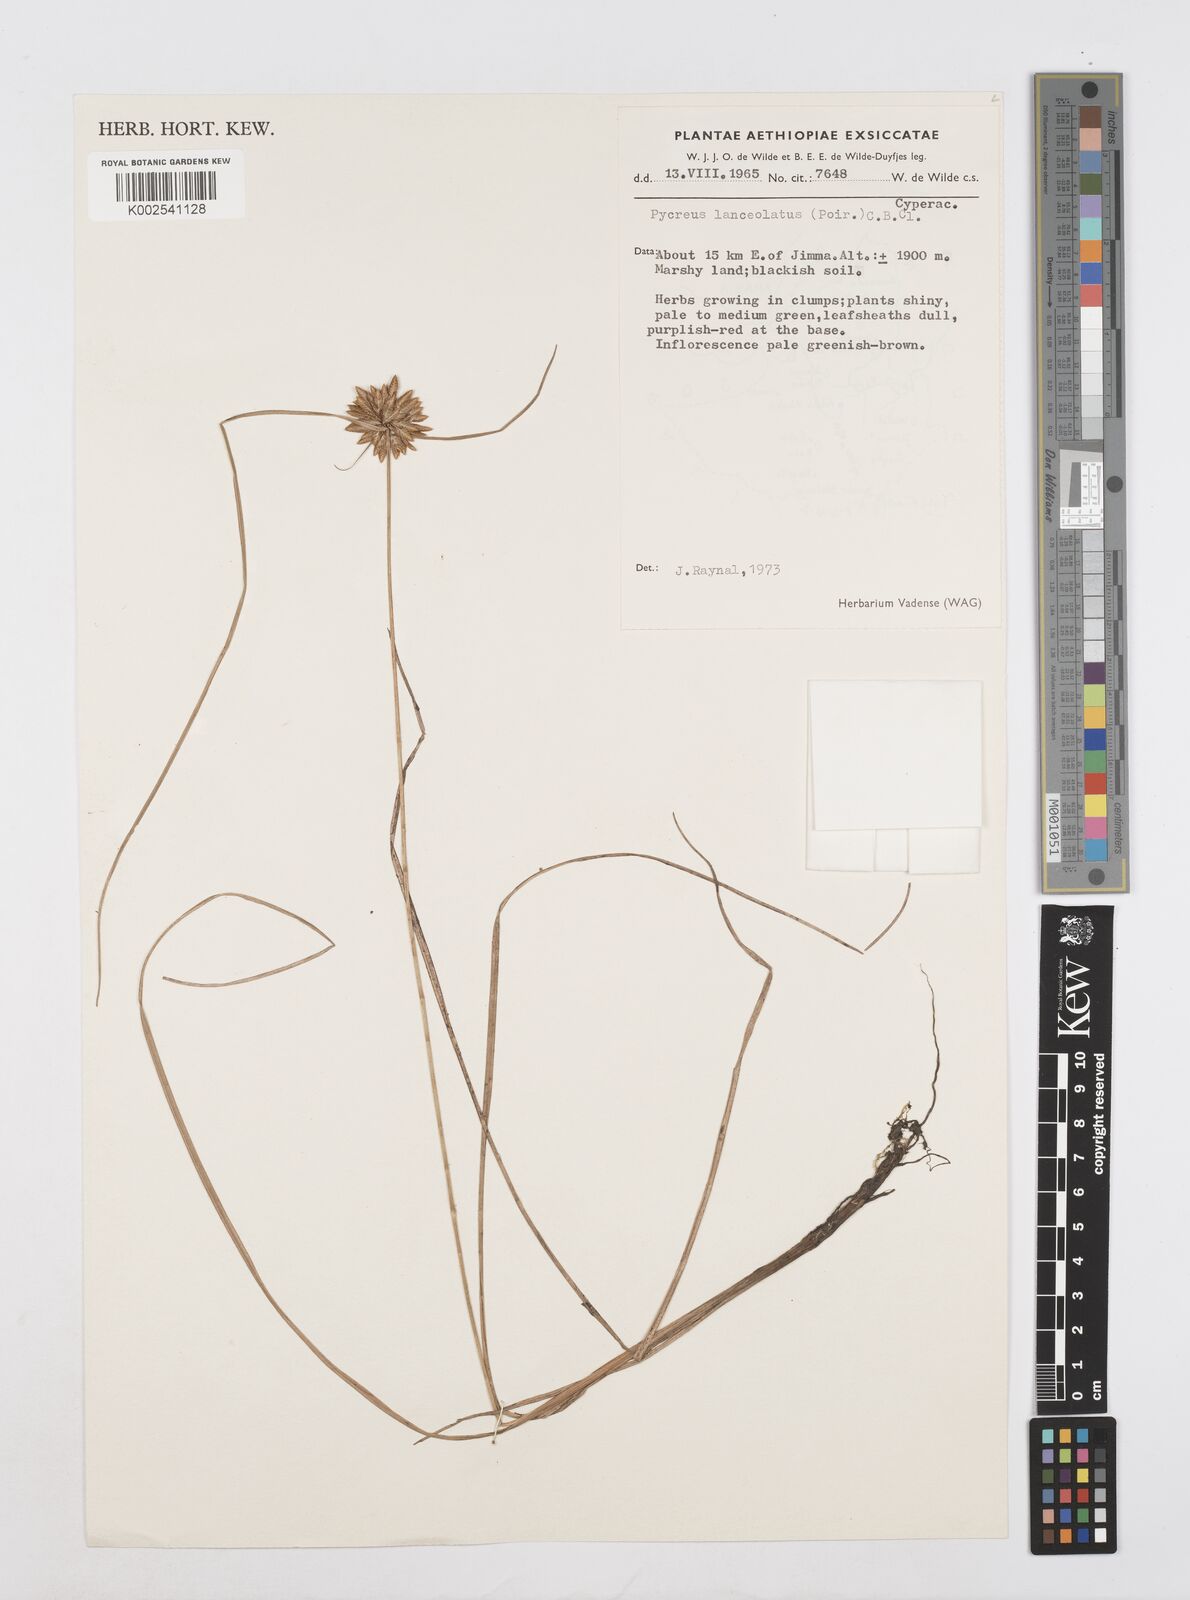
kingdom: Plantae
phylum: Tracheophyta
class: Liliopsida
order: Poales
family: Cyperaceae
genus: Cyperus
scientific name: Cyperus lanceolatus
